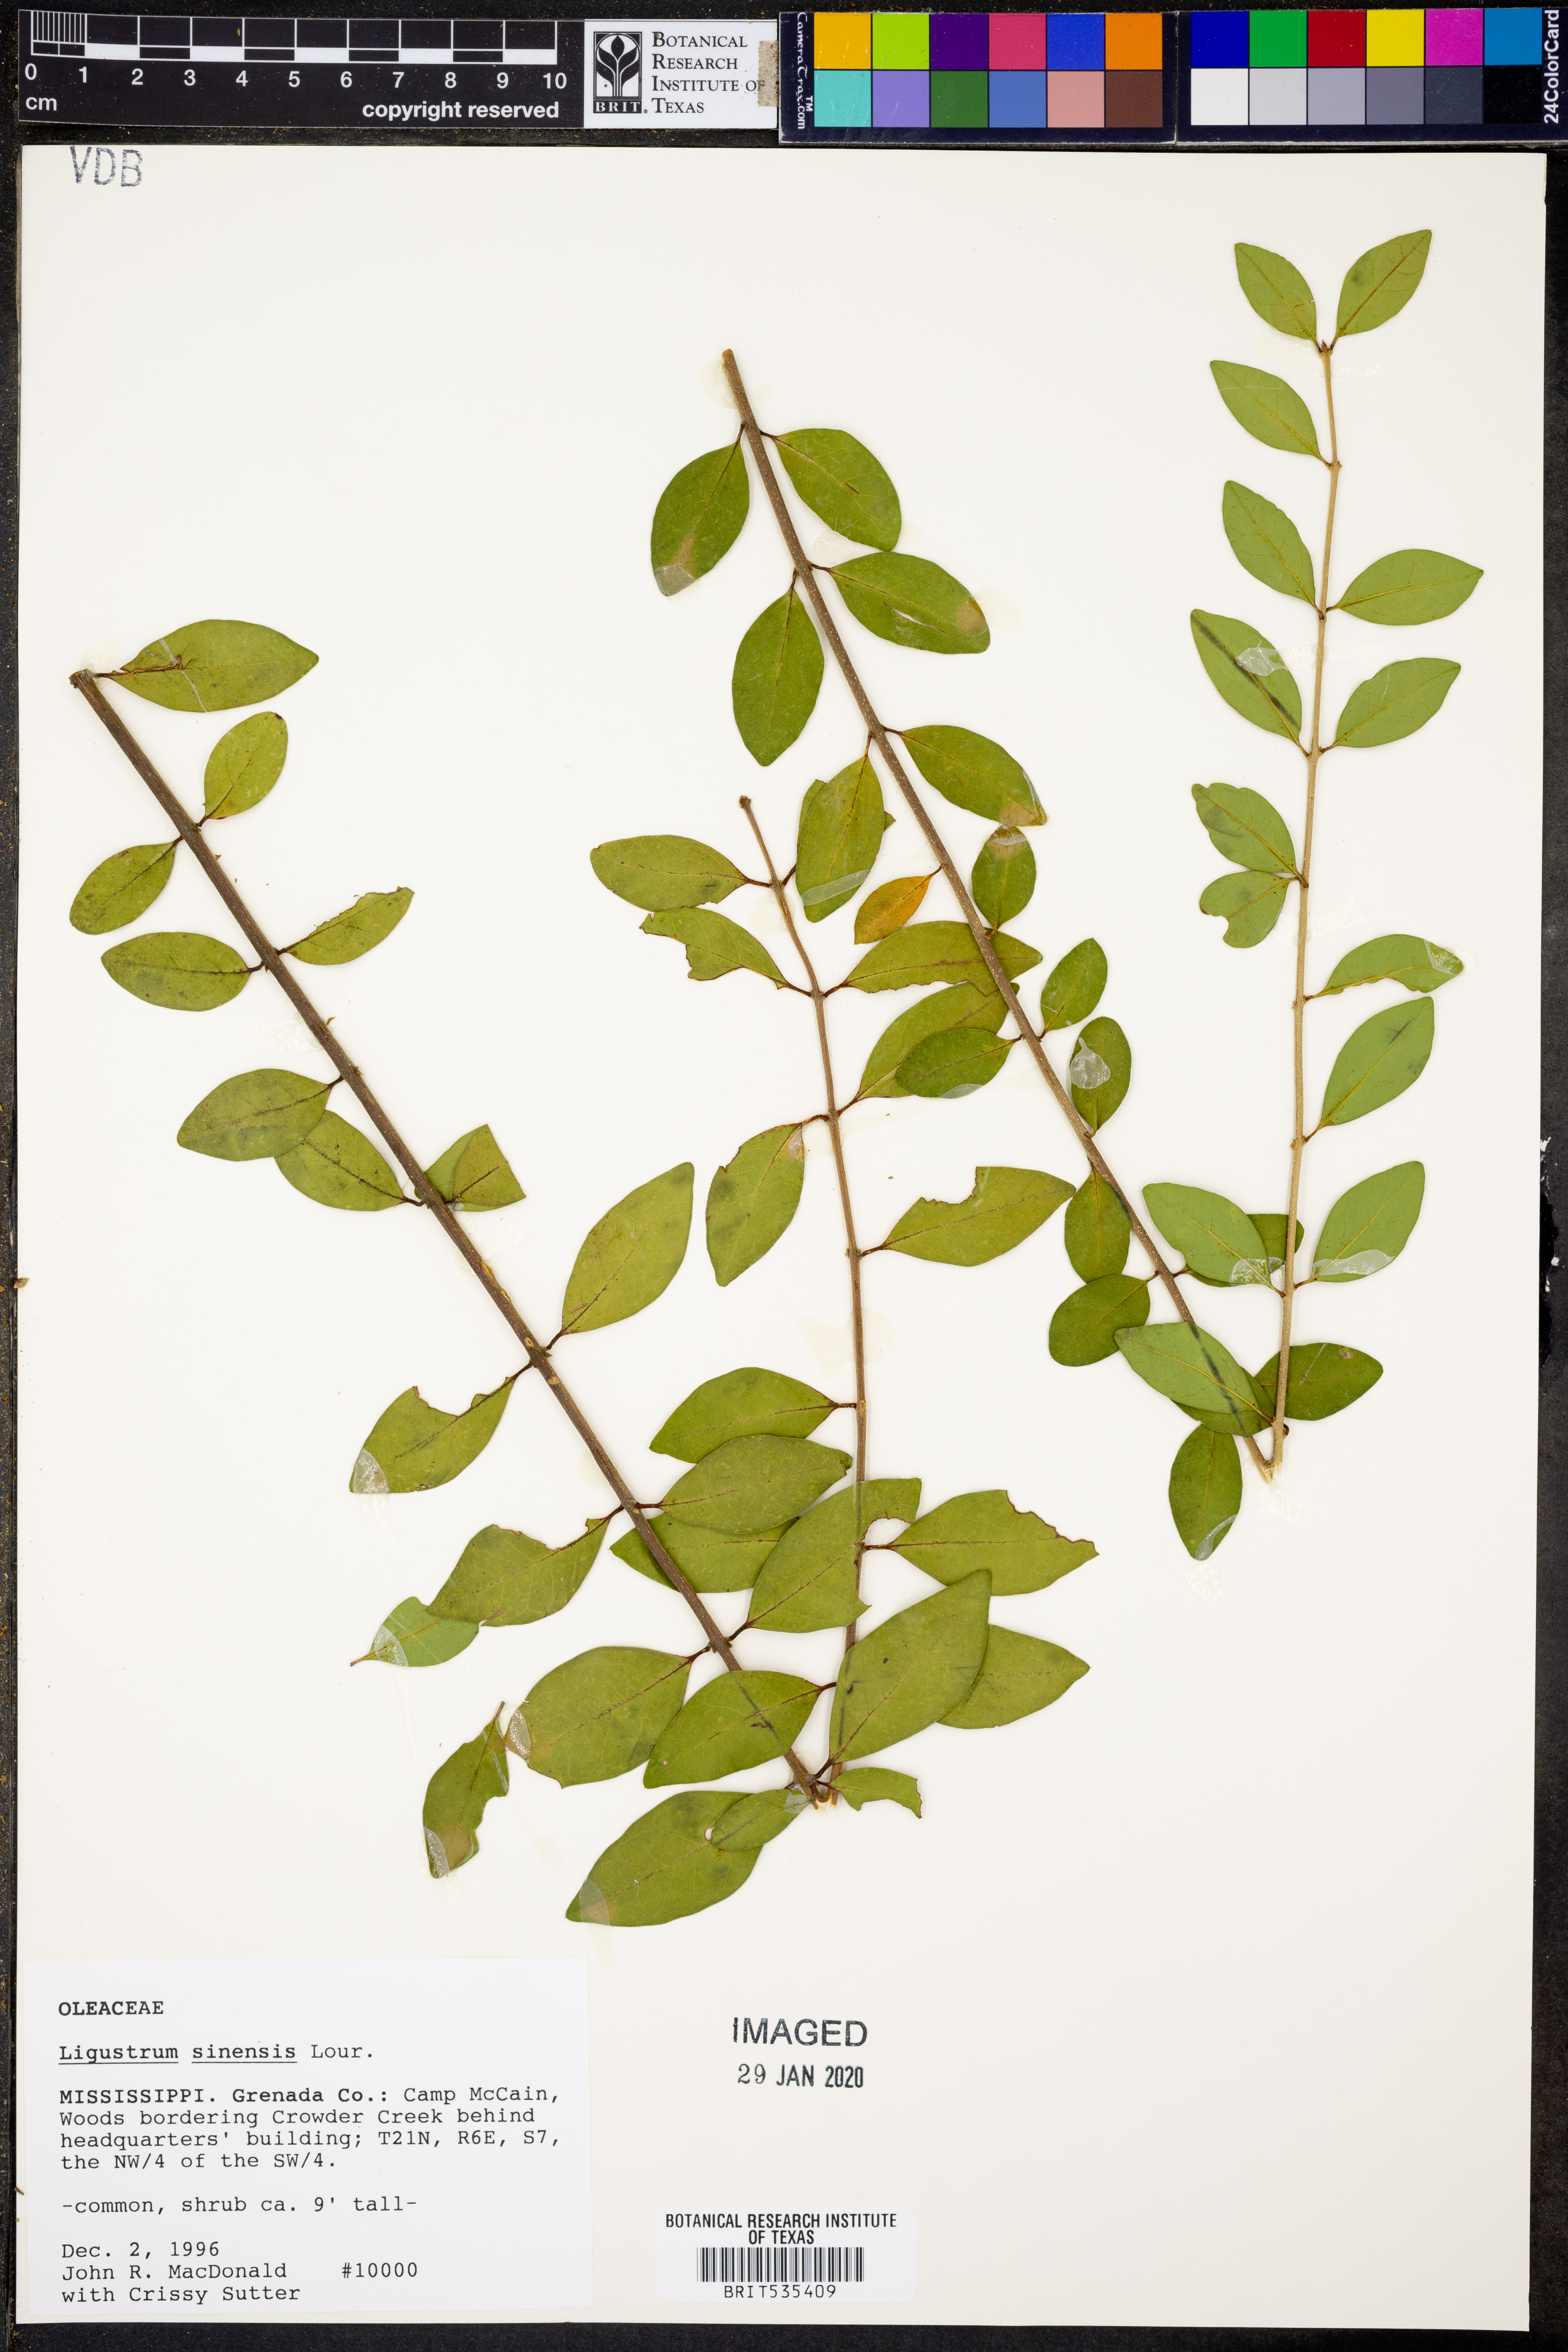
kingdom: Plantae
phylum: Tracheophyta
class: Magnoliopsida
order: Lamiales
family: Oleaceae
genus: Ligustrum
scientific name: Ligustrum sinense
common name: Chinese privet
